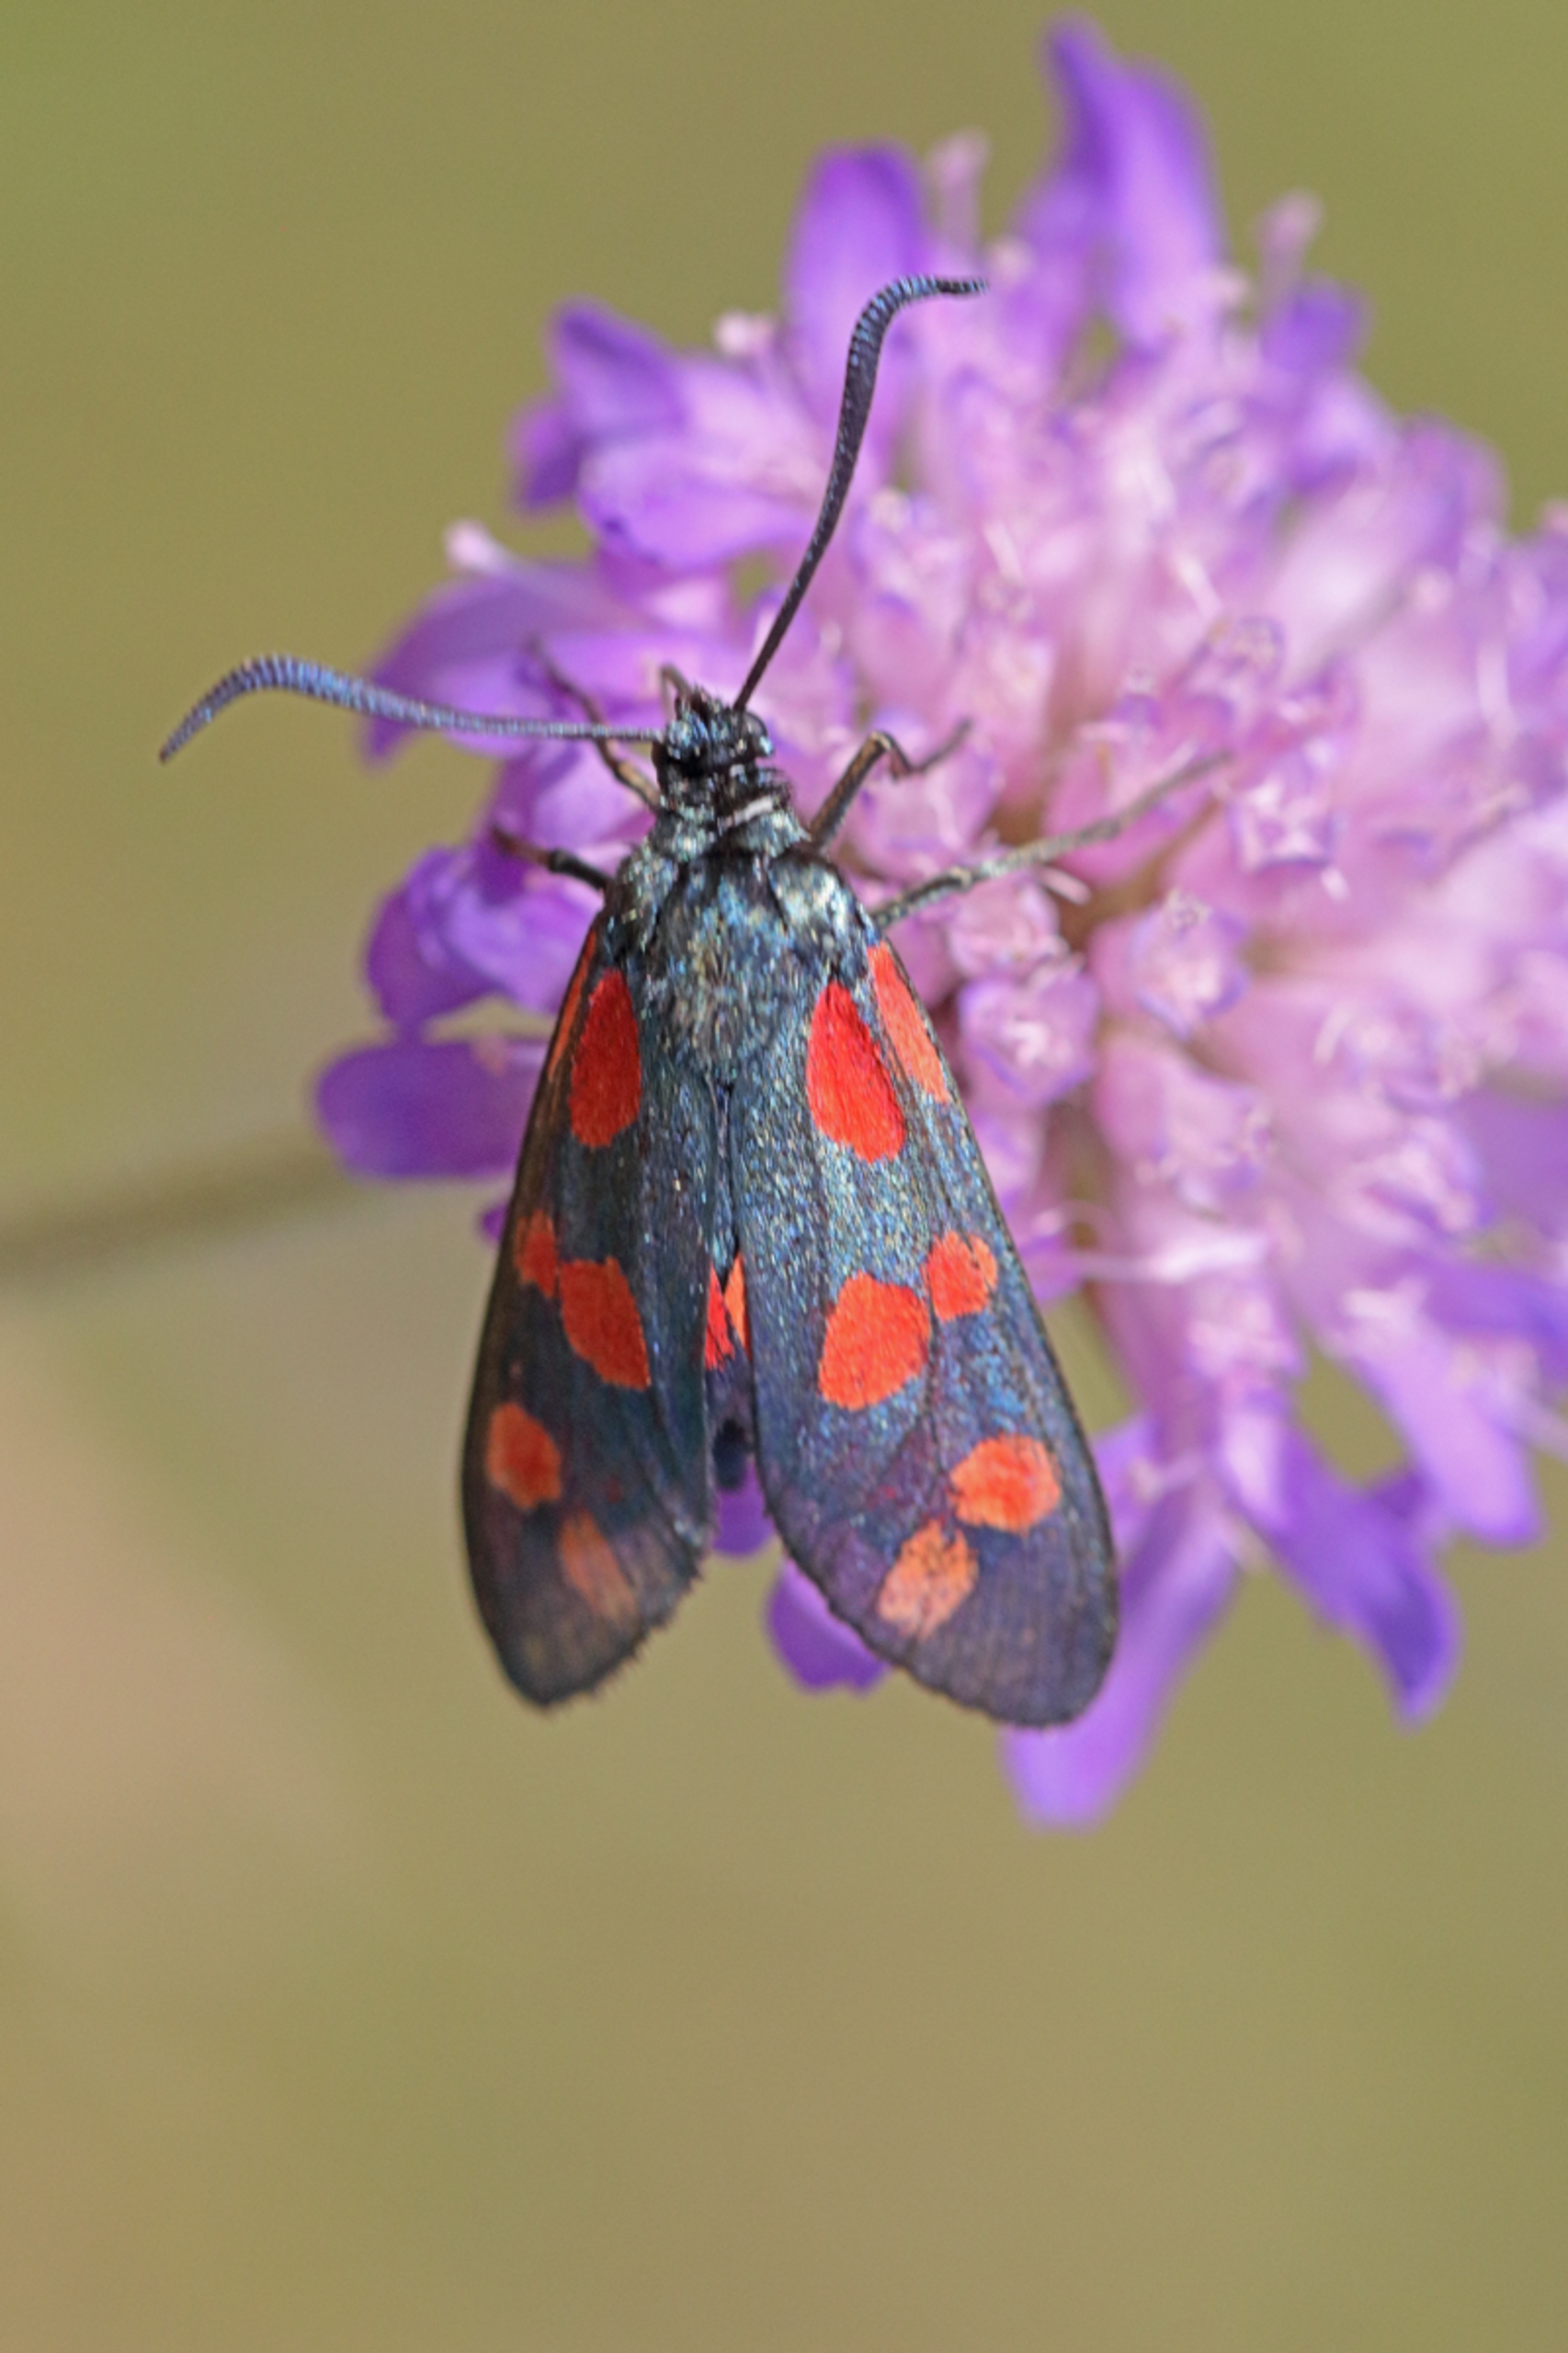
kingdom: Animalia
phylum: Arthropoda
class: Insecta
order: Lepidoptera
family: Zygaenidae
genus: Zygaena
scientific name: Zygaena filipendulae
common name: Seksplettet køllesværmer
